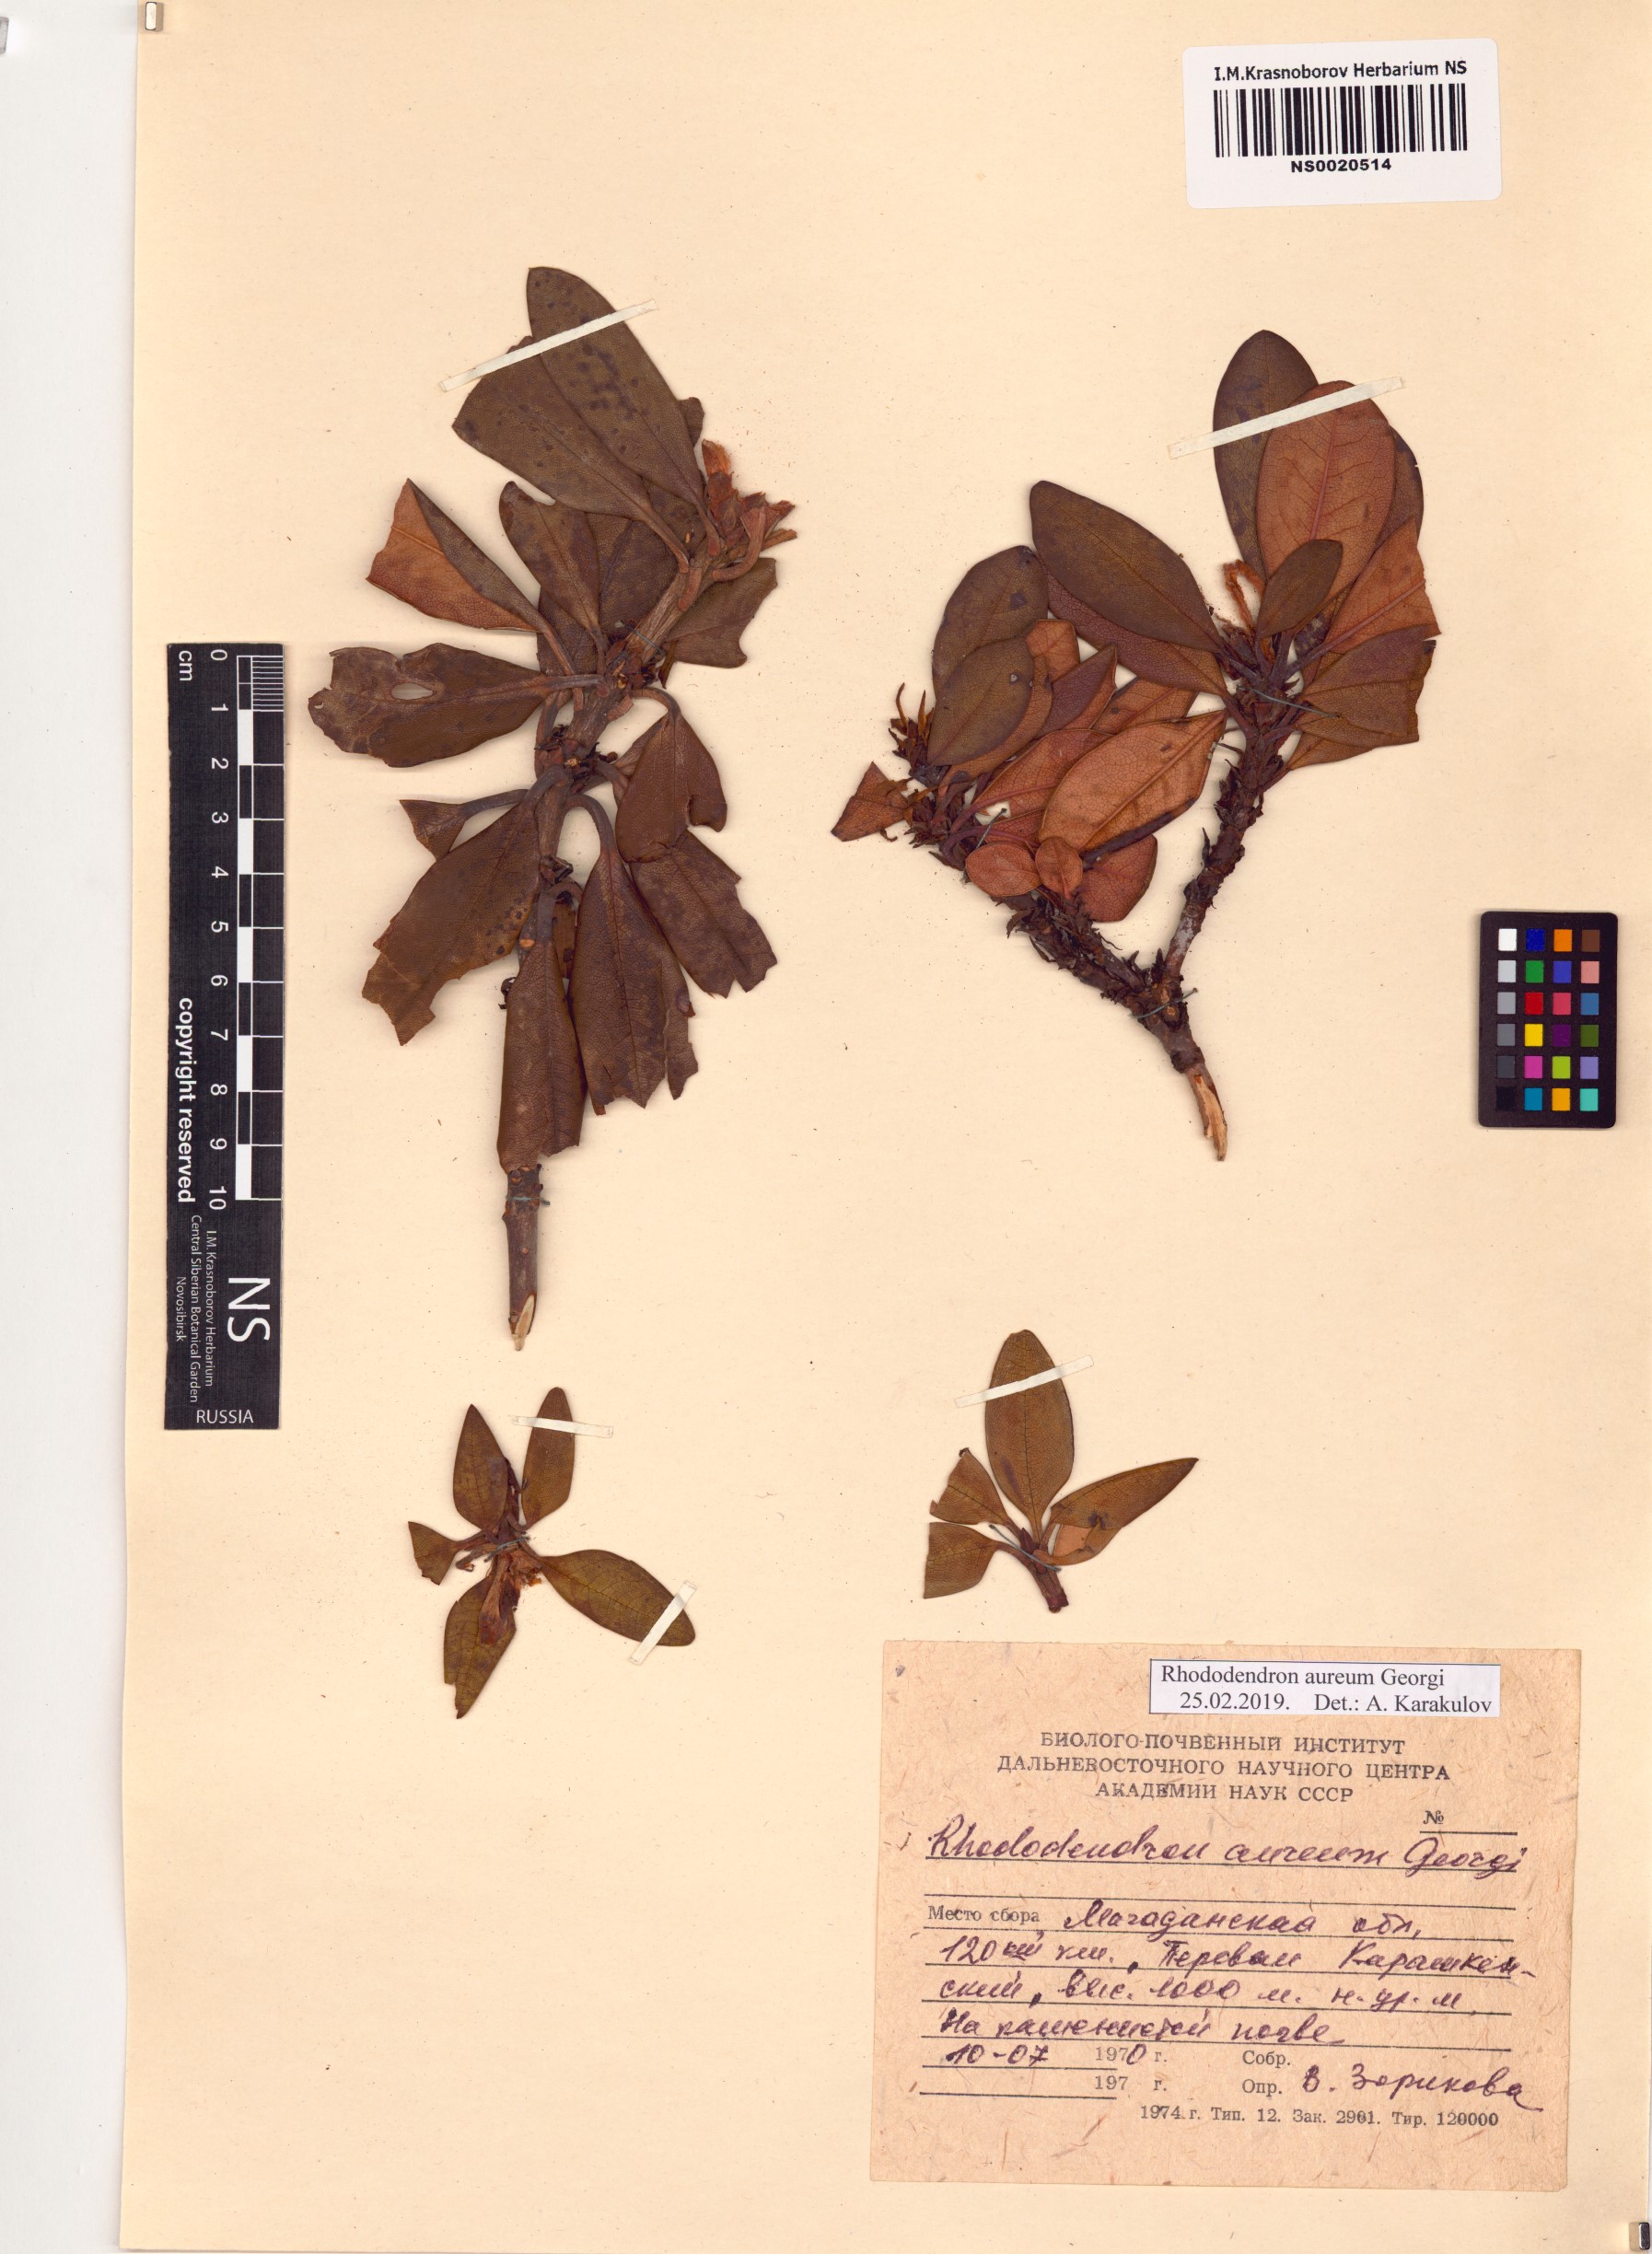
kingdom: Plantae
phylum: Tracheophyta
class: Magnoliopsida
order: Ericales
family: Ericaceae
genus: Rhododendron
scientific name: Rhododendron aureum
